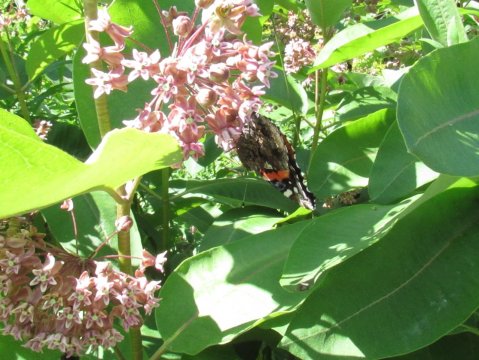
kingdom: Animalia
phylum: Arthropoda
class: Insecta
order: Lepidoptera
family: Nymphalidae
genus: Vanessa
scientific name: Vanessa atalanta
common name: Red Admiral
